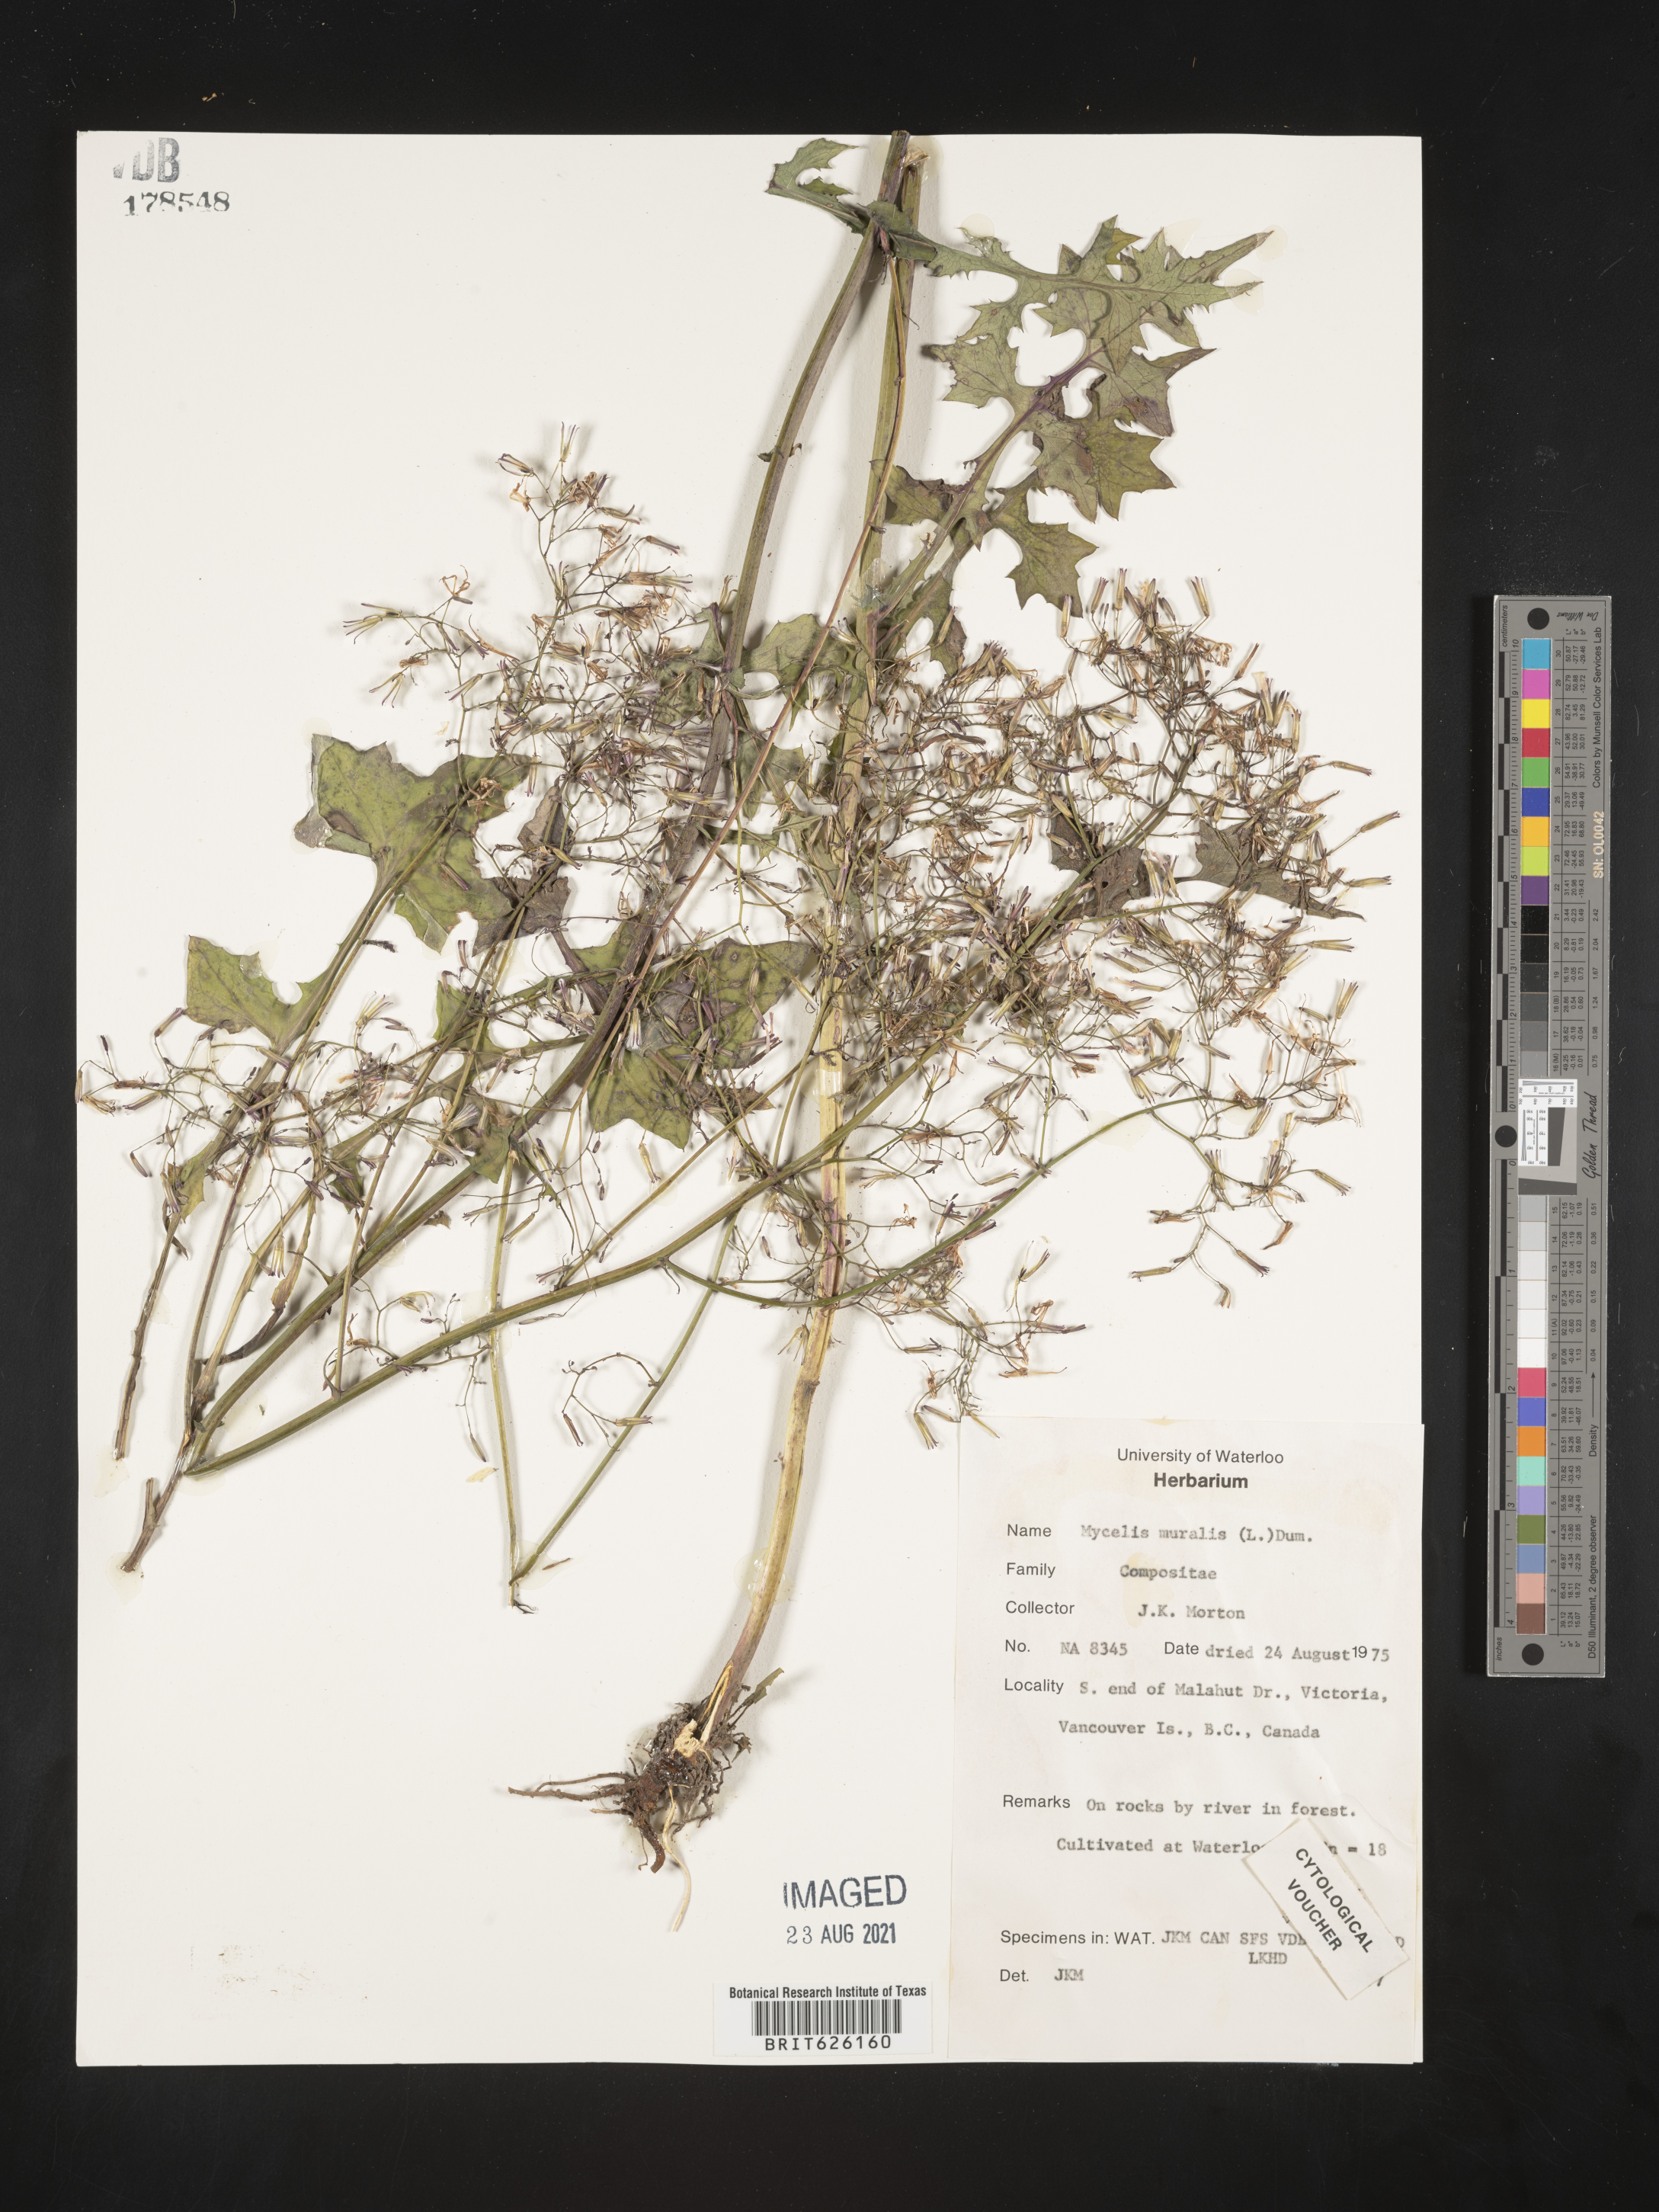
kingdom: Plantae
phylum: Tracheophyta
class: Magnoliopsida
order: Asterales
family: Asteraceae
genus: Mycelis
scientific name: Mycelis muralis
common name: Wall lettuce
